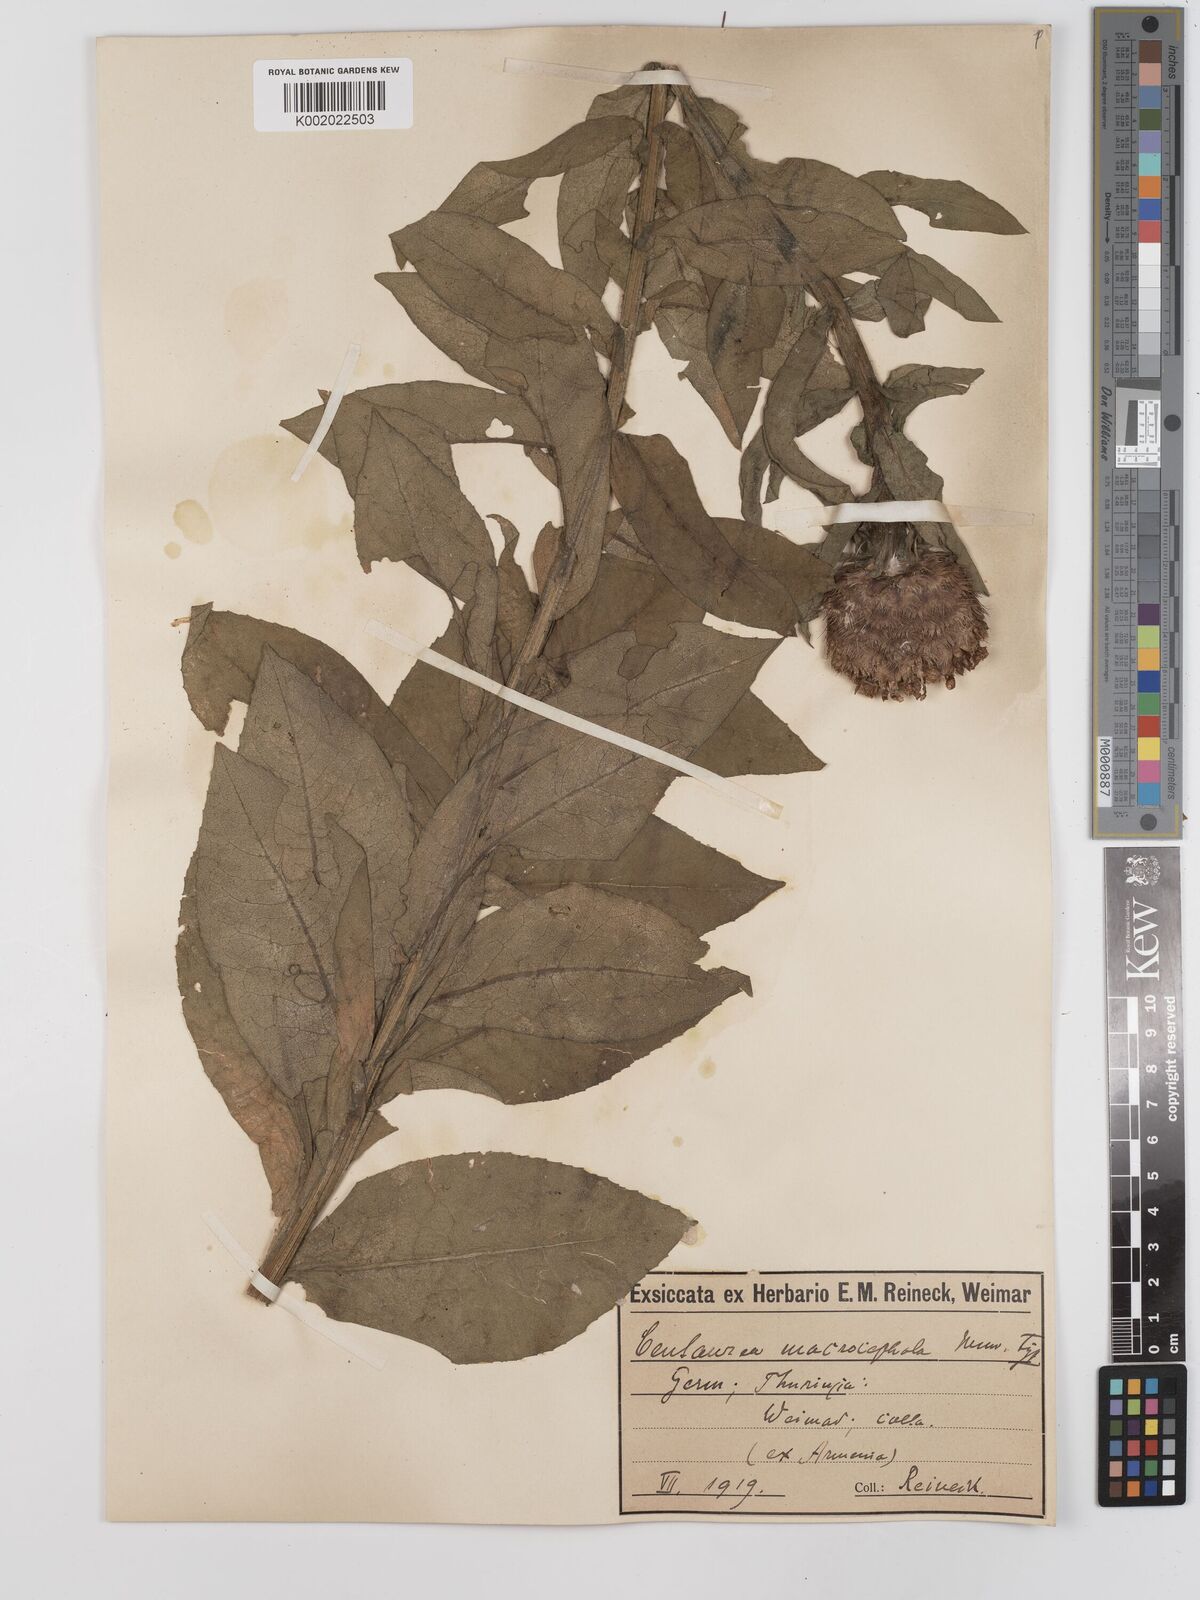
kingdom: Plantae
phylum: Tracheophyta
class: Magnoliopsida
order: Asterales
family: Asteraceae
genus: Centaurea
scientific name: Centaurea macrocephala
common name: Big-head knapweed
